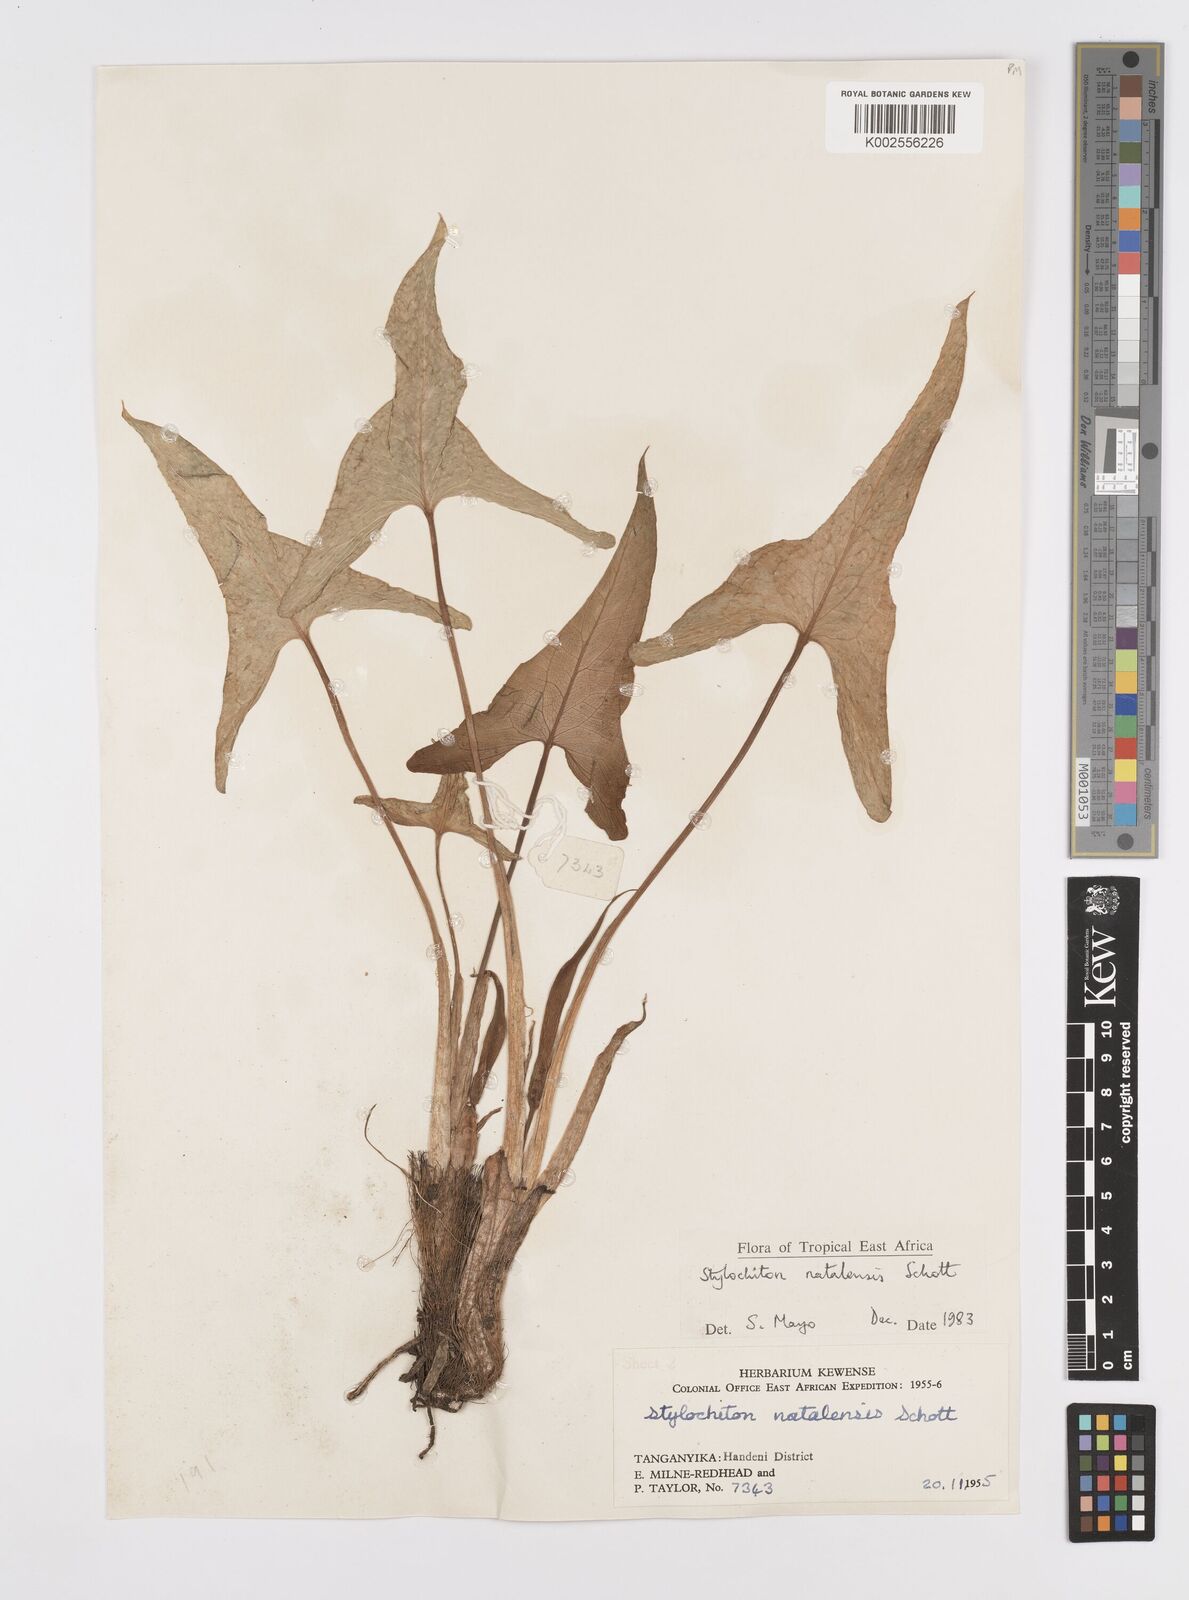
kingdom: Plantae
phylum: Tracheophyta
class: Liliopsida
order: Alismatales
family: Araceae
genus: Stylochaeton
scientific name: Stylochaeton natalense
